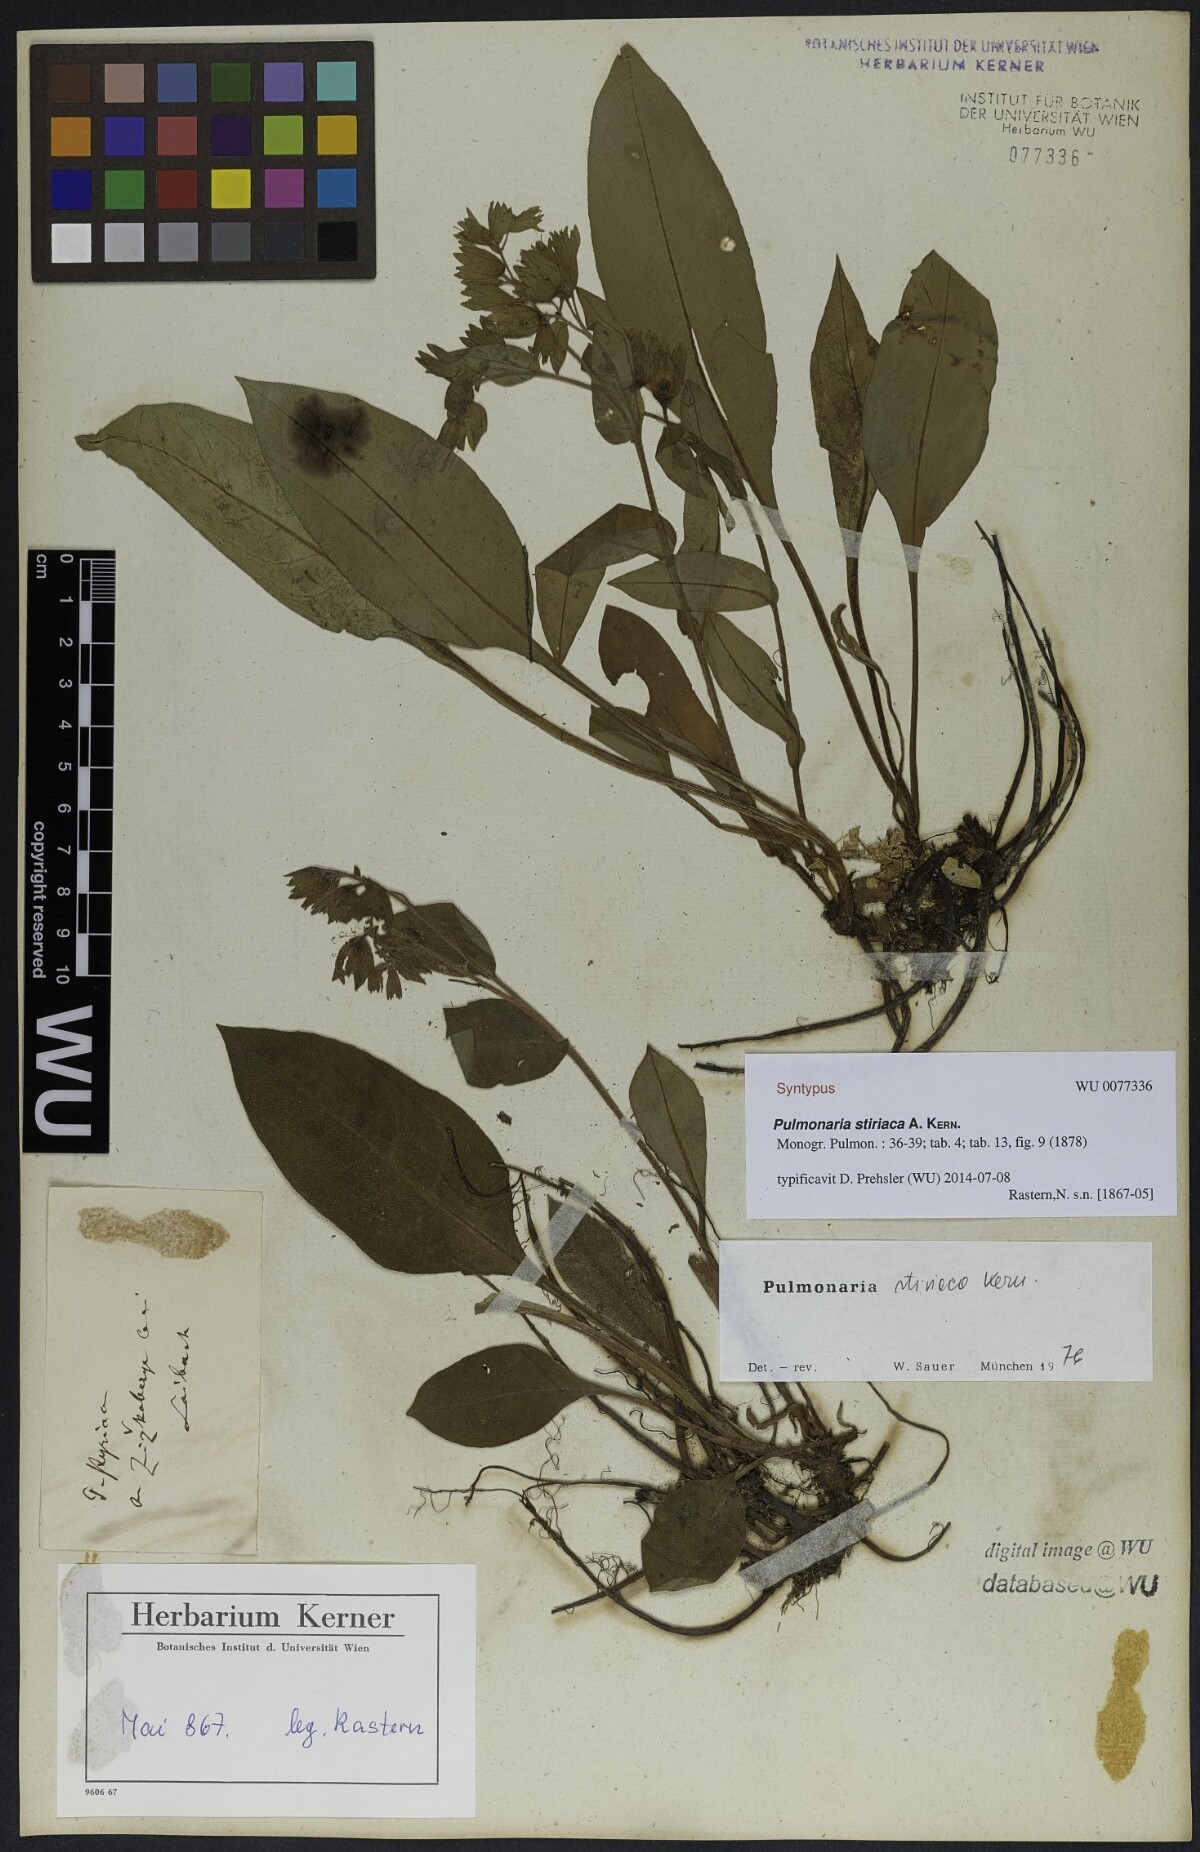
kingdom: Plantae
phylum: Tracheophyta
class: Magnoliopsida
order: Boraginales
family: Boraginaceae
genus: Pulmonaria
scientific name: Pulmonaria stiriaca
